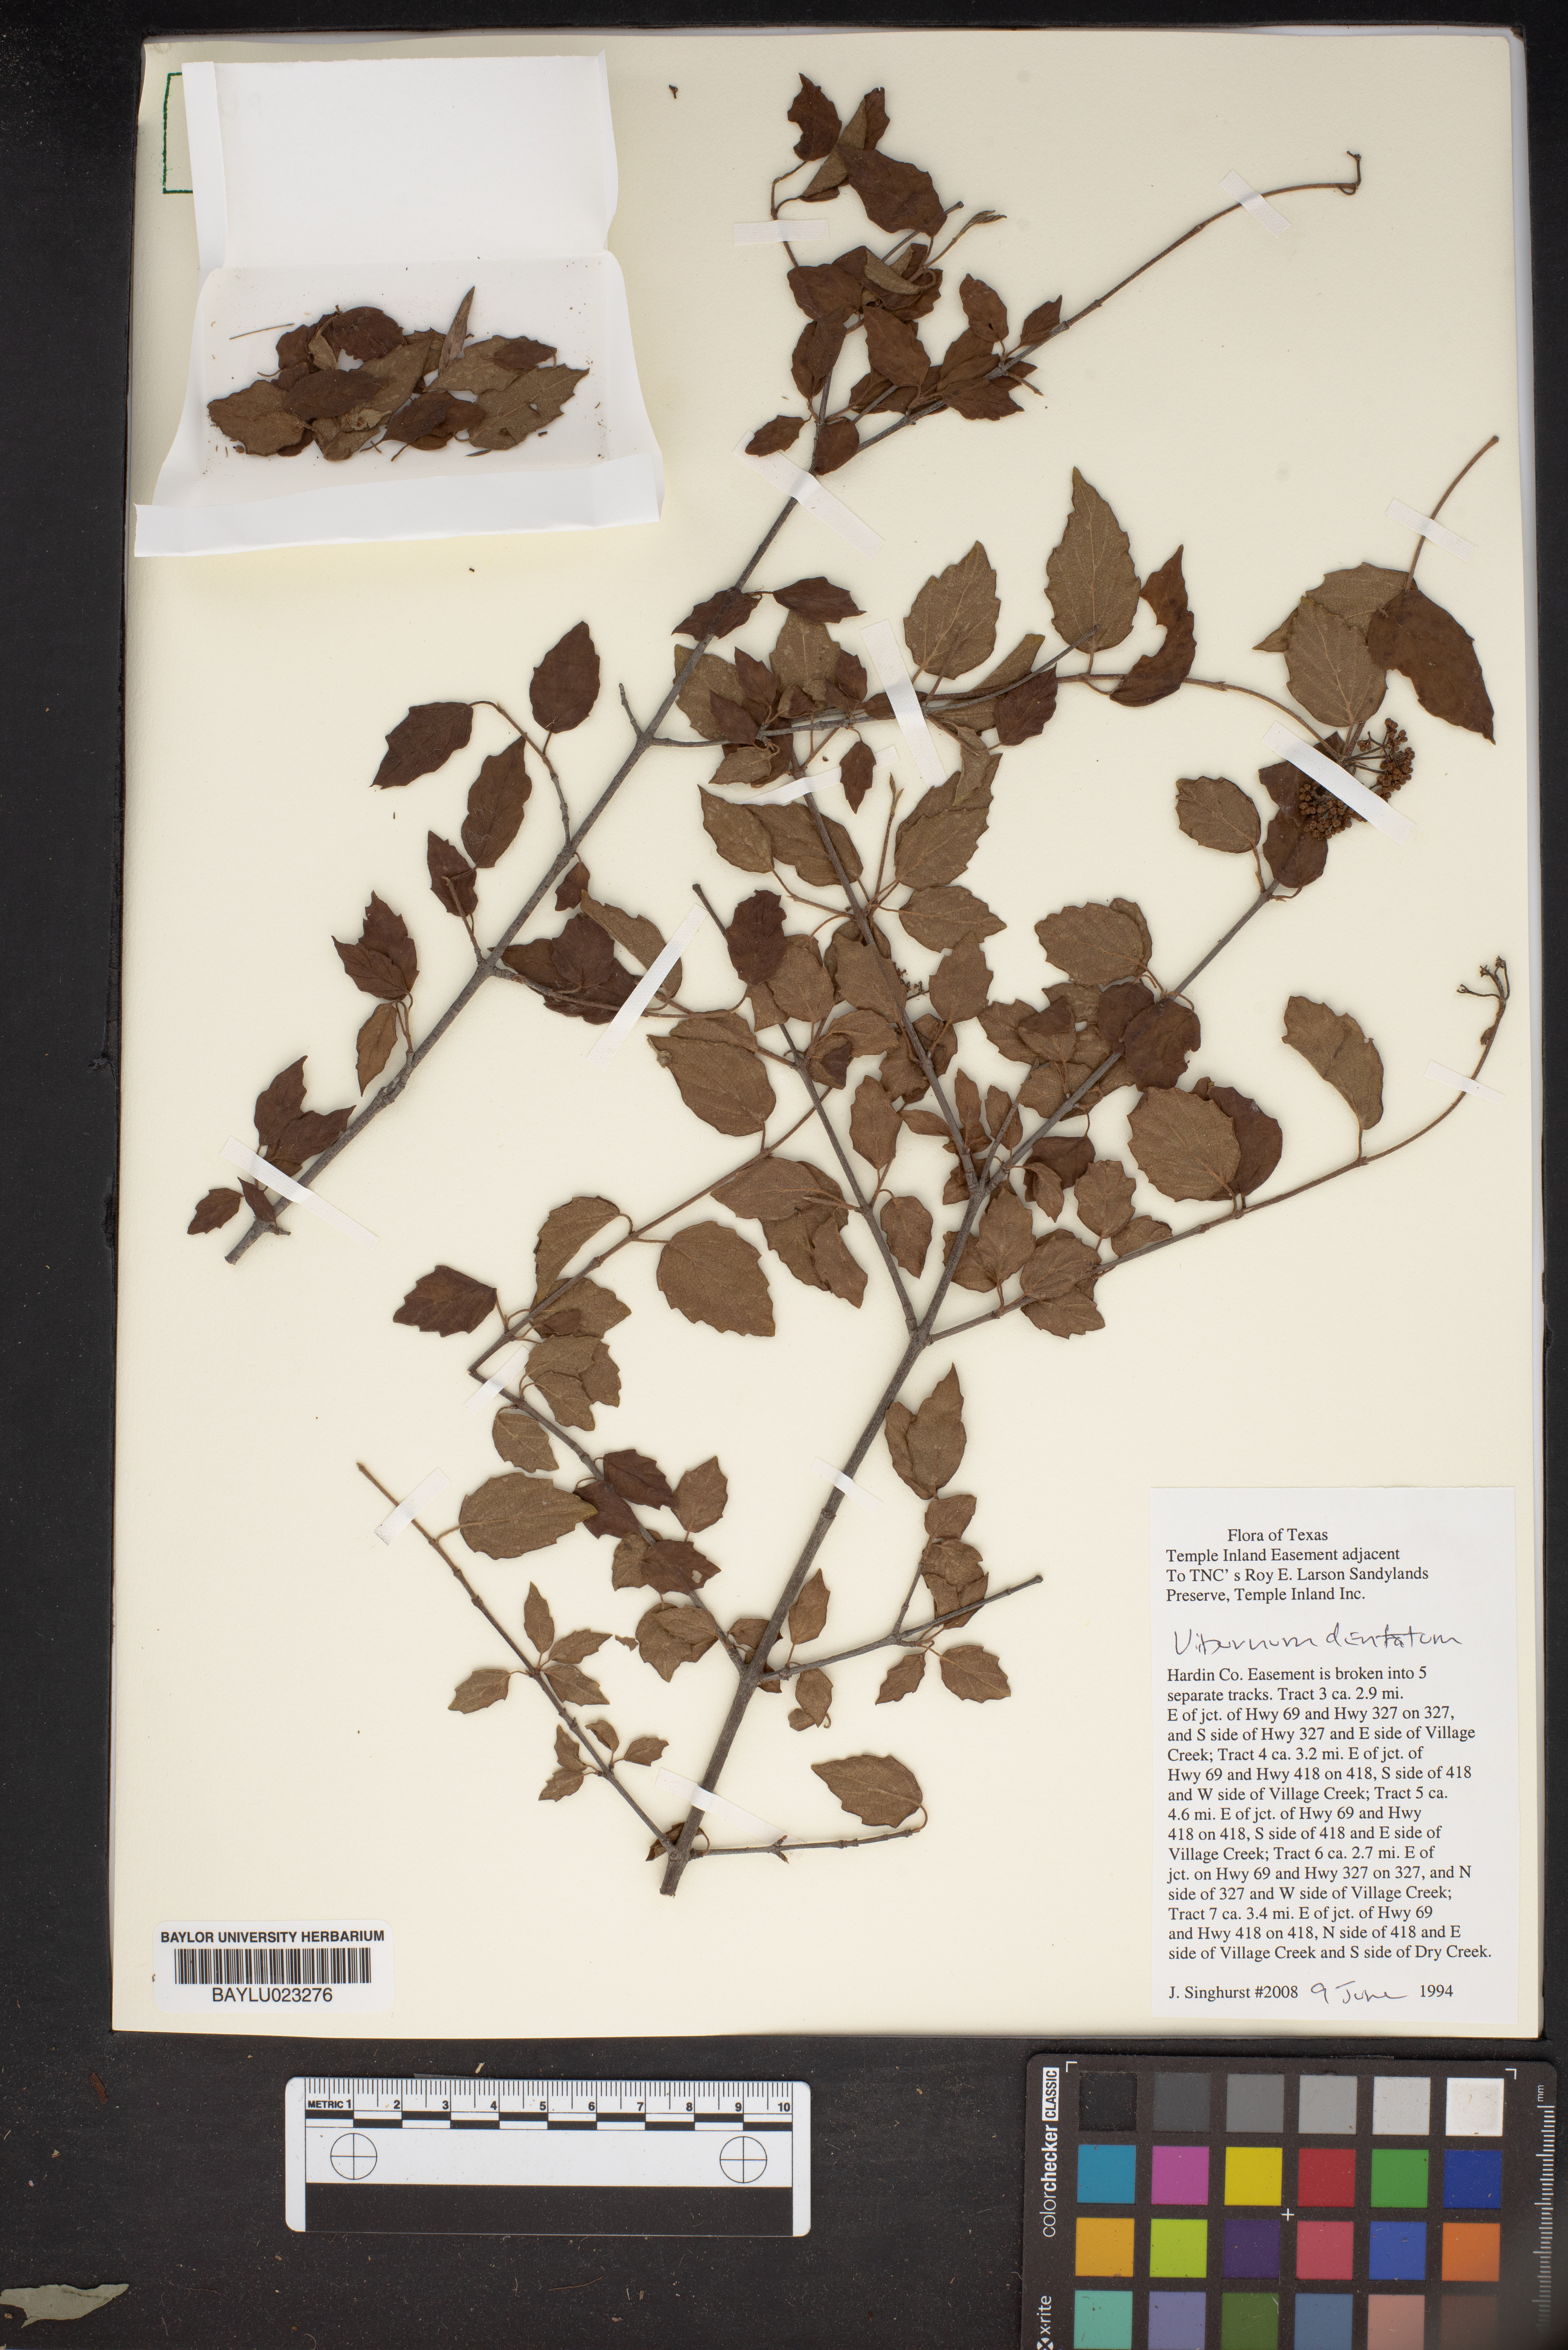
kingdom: Plantae
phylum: Tracheophyta
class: Magnoliopsida
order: Dipsacales
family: Viburnaceae
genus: Viburnum
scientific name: Viburnum dentatum
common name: Arrow-wood
